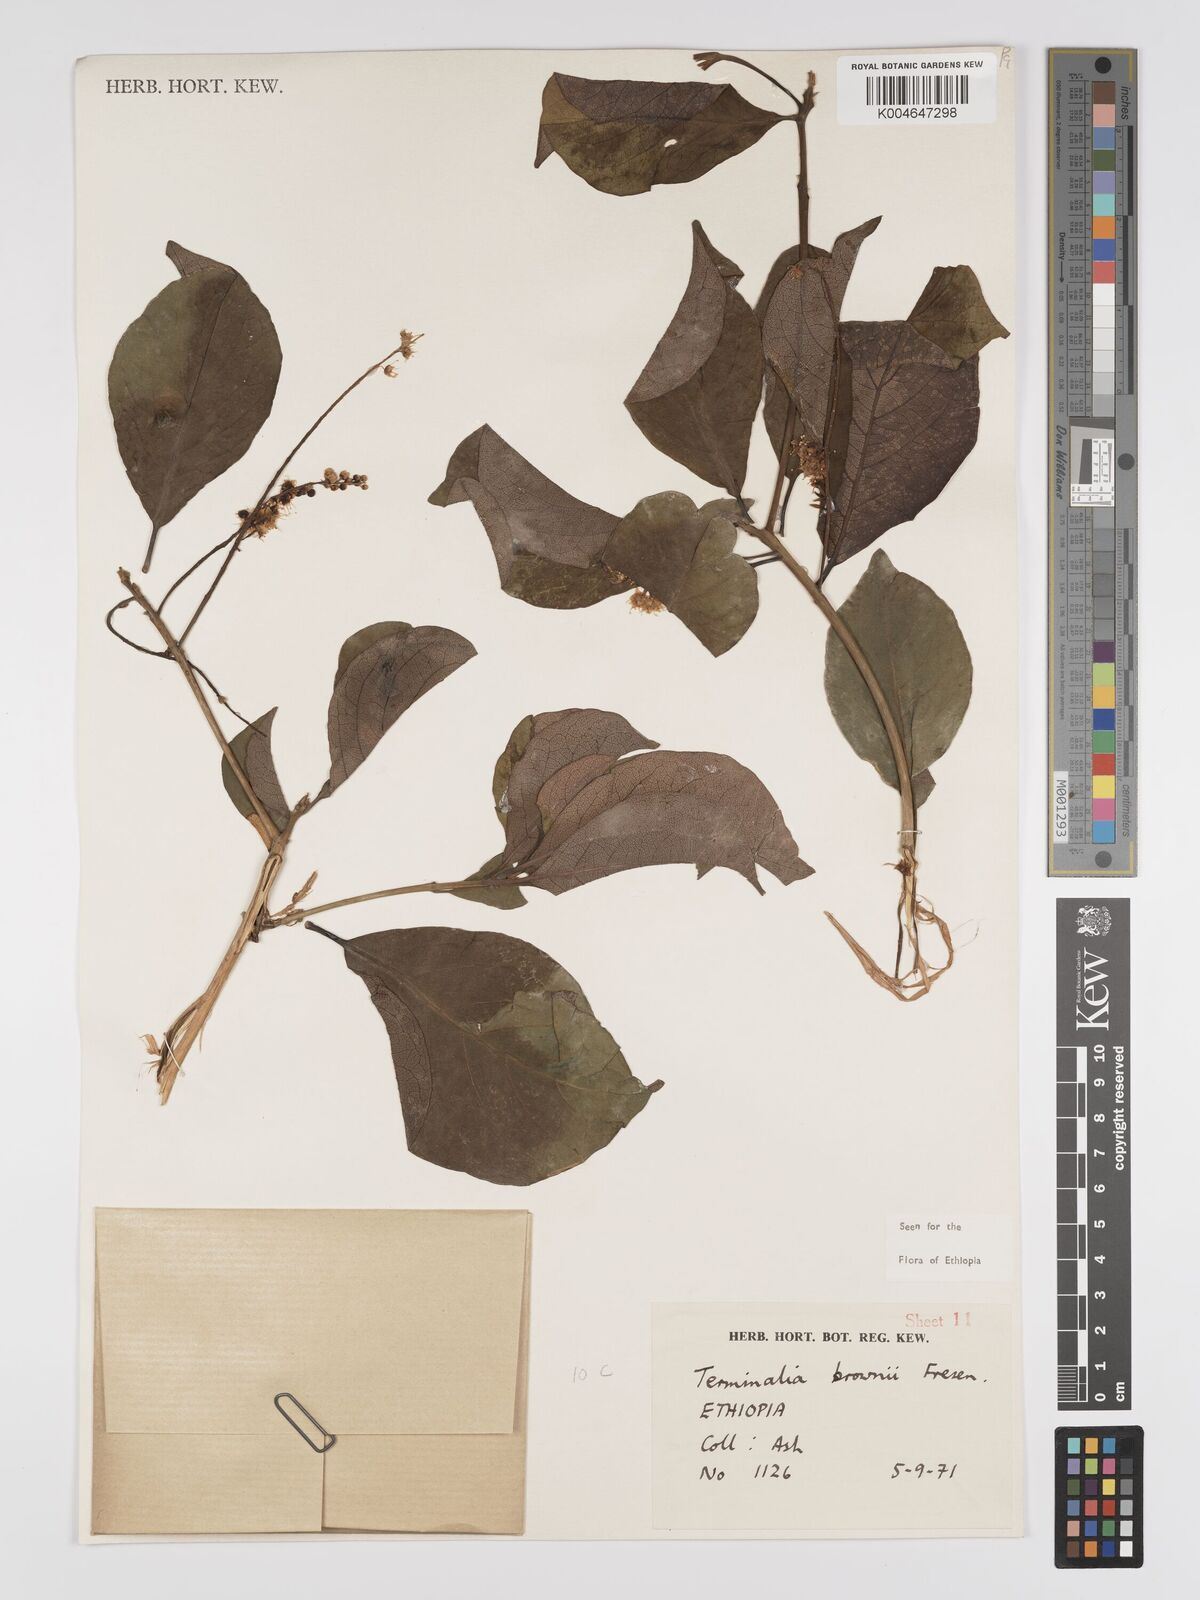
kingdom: Plantae
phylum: Tracheophyta
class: Magnoliopsida
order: Myrtales
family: Combretaceae
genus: Terminalia
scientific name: Terminalia brownii
